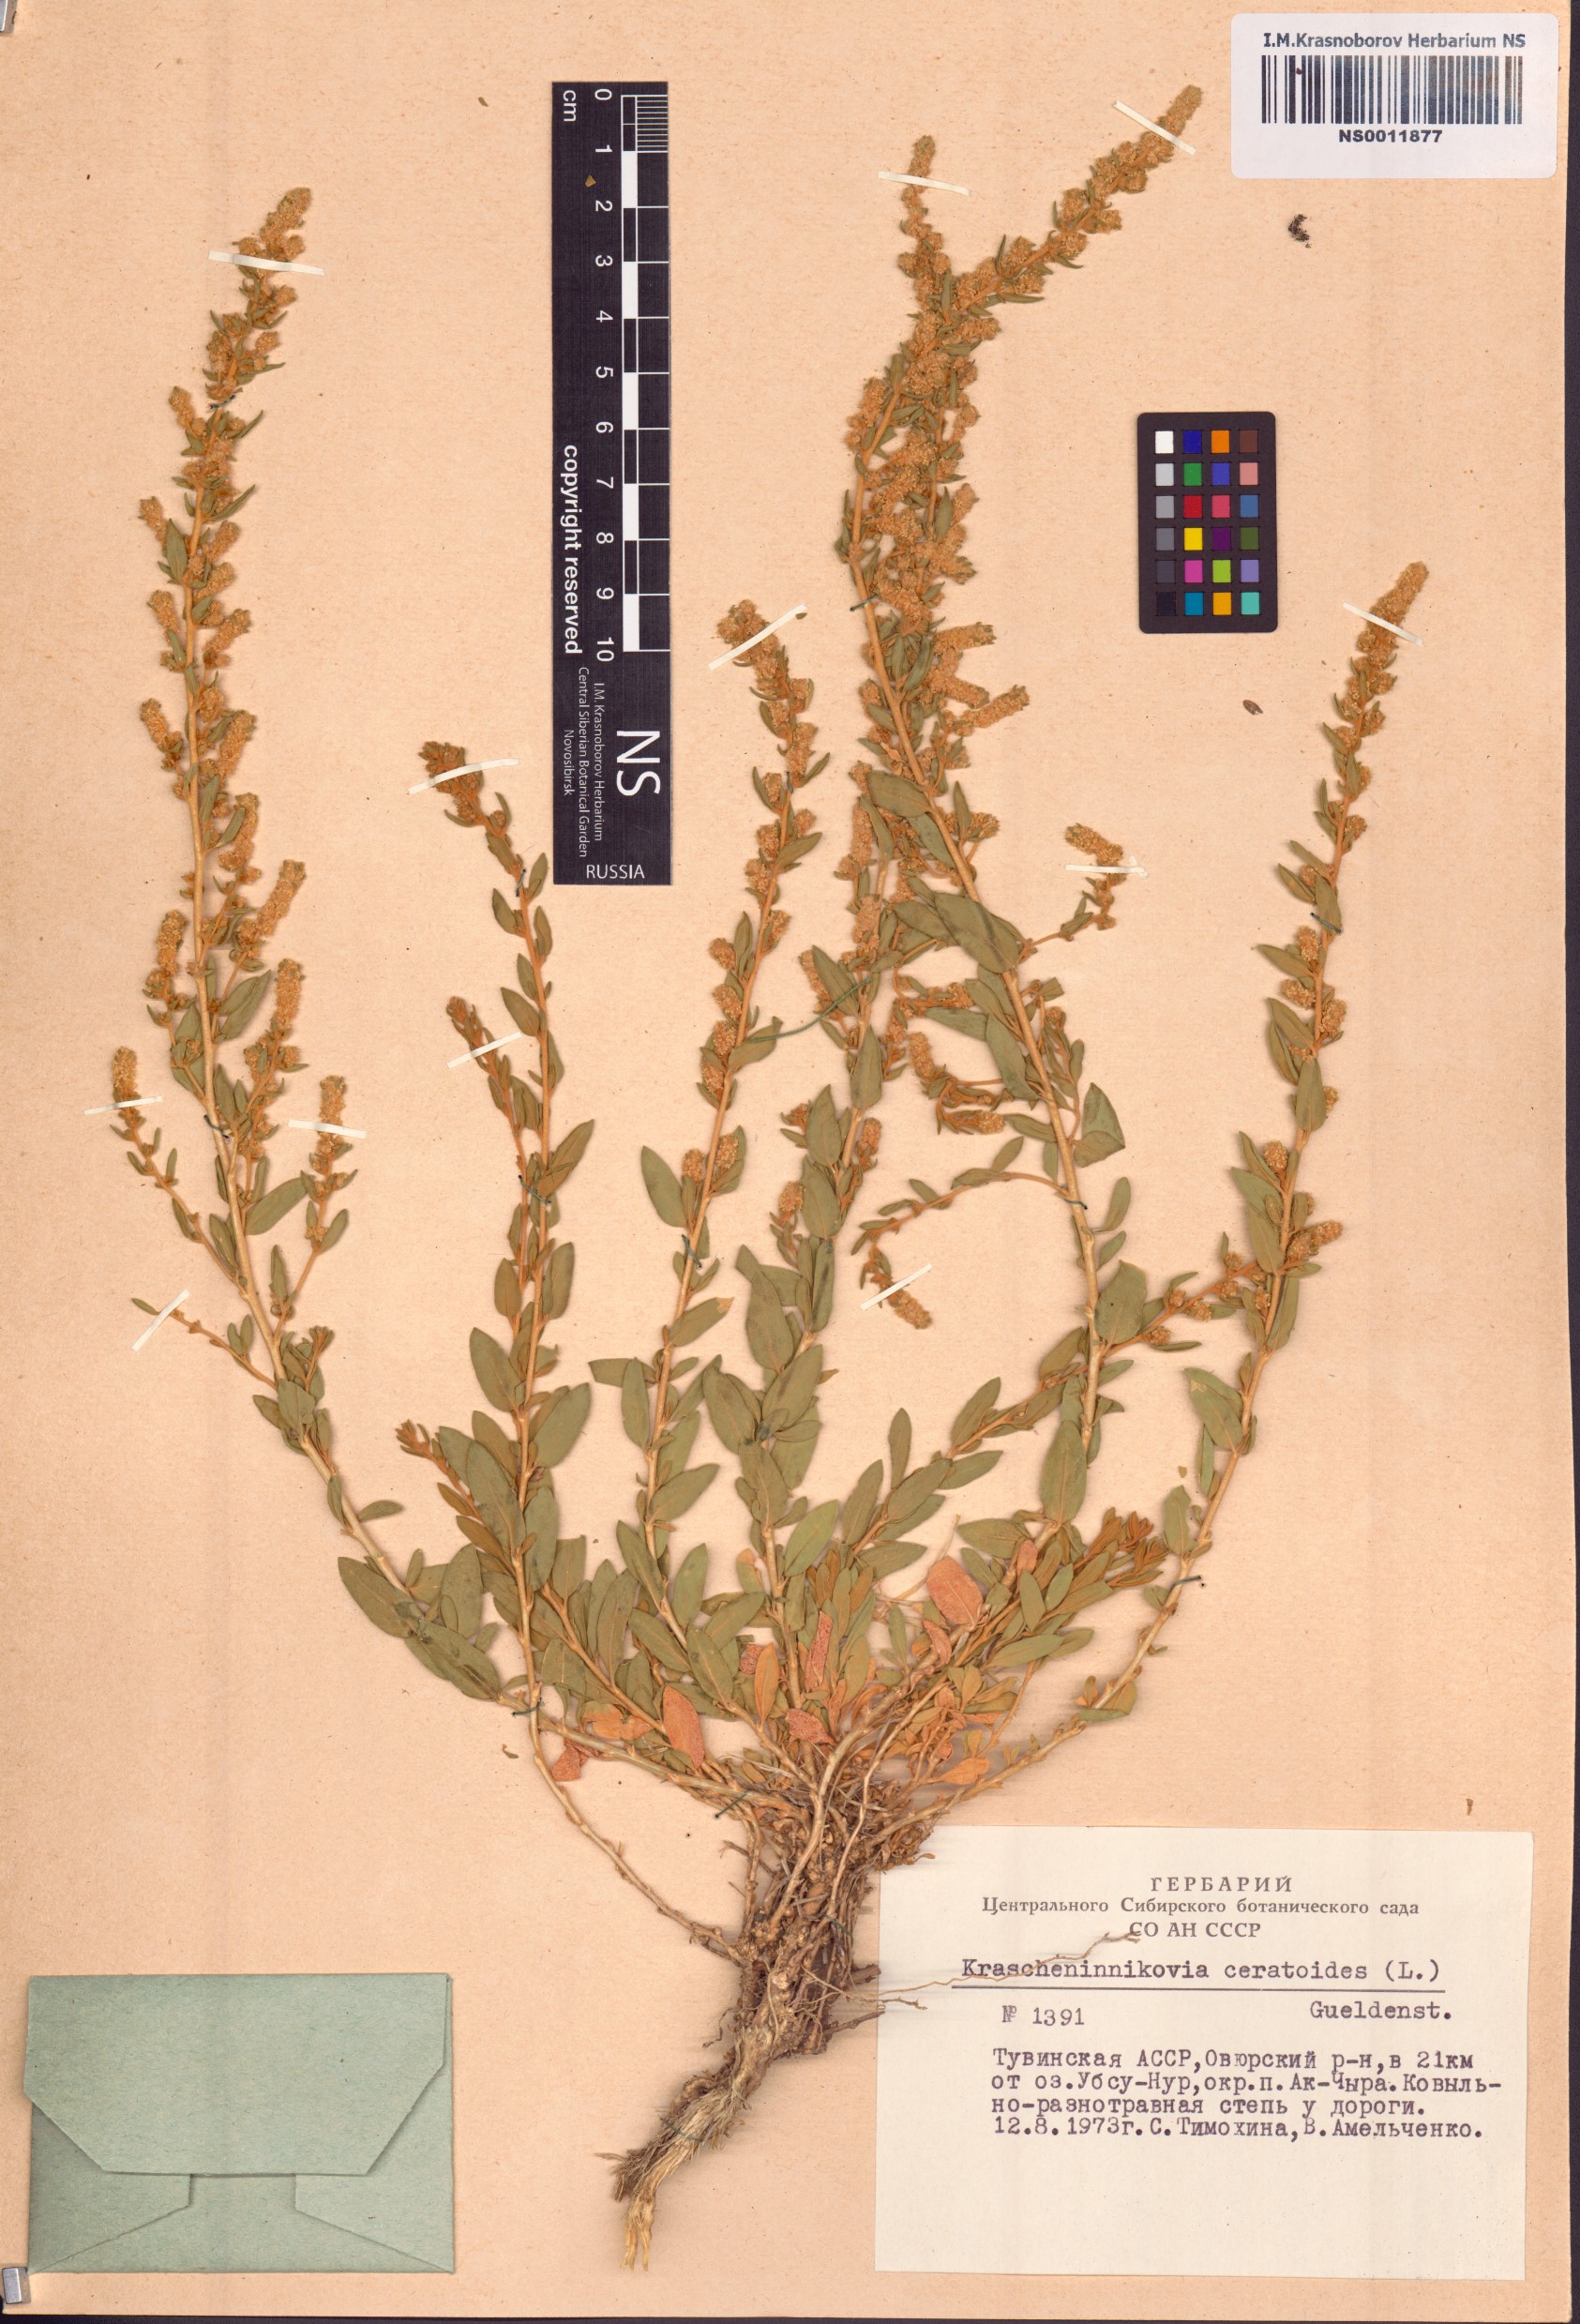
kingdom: Plantae
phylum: Tracheophyta
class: Magnoliopsida
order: Caryophyllales
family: Amaranthaceae
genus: Krascheninnikovia
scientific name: Krascheninnikovia ceratoides
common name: Pamirian winterfat
